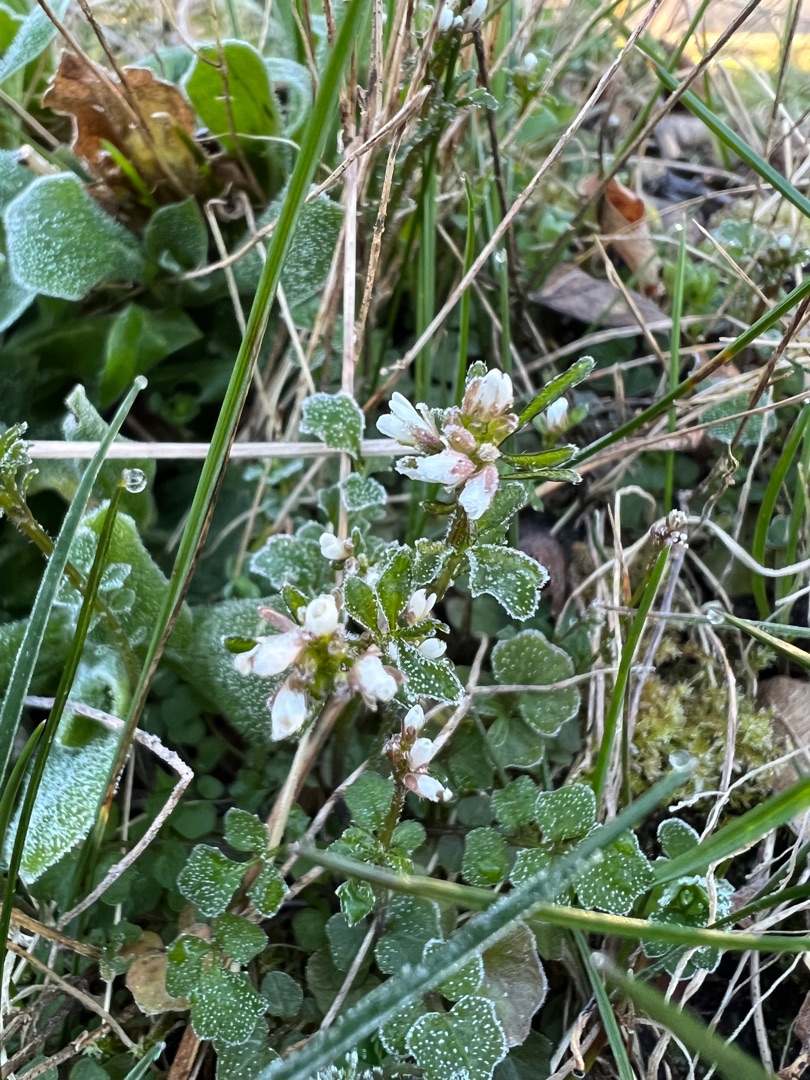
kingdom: Plantae
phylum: Tracheophyta
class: Magnoliopsida
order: Brassicales
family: Brassicaceae
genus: Cardamine
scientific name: Cardamine hirsuta
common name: Roset-springklap
